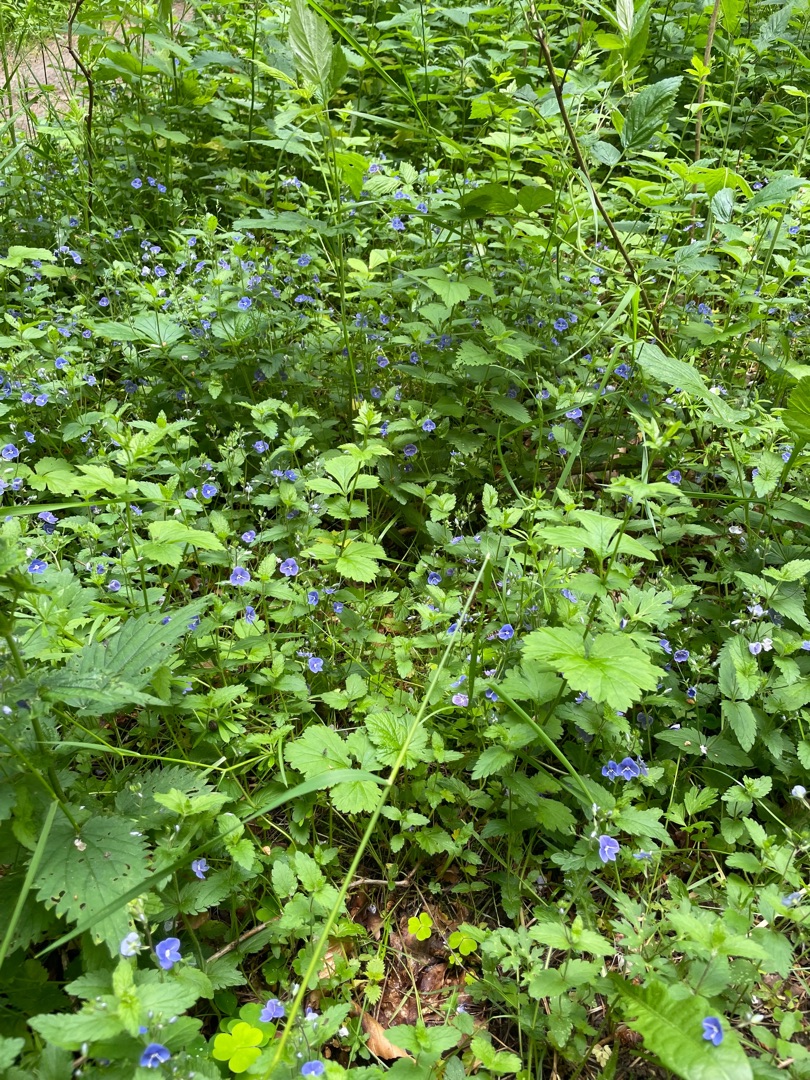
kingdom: Plantae
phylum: Tracheophyta
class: Magnoliopsida
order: Lamiales
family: Plantaginaceae
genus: Veronica
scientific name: Veronica chamaedrys
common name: Tveskægget ærenpris
